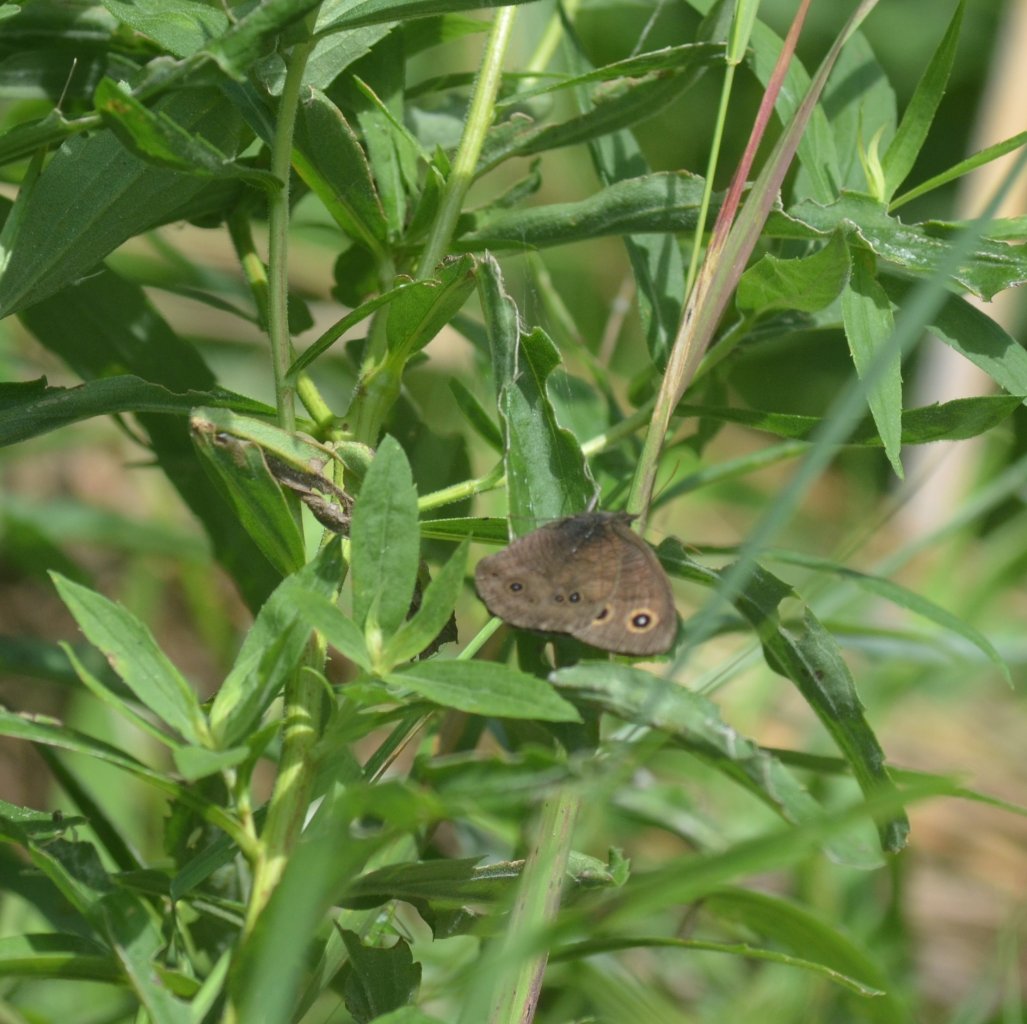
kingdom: Animalia
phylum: Arthropoda
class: Insecta
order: Lepidoptera
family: Nymphalidae
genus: Cercyonis
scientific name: Cercyonis pegala
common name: Common Wood-Nymph
